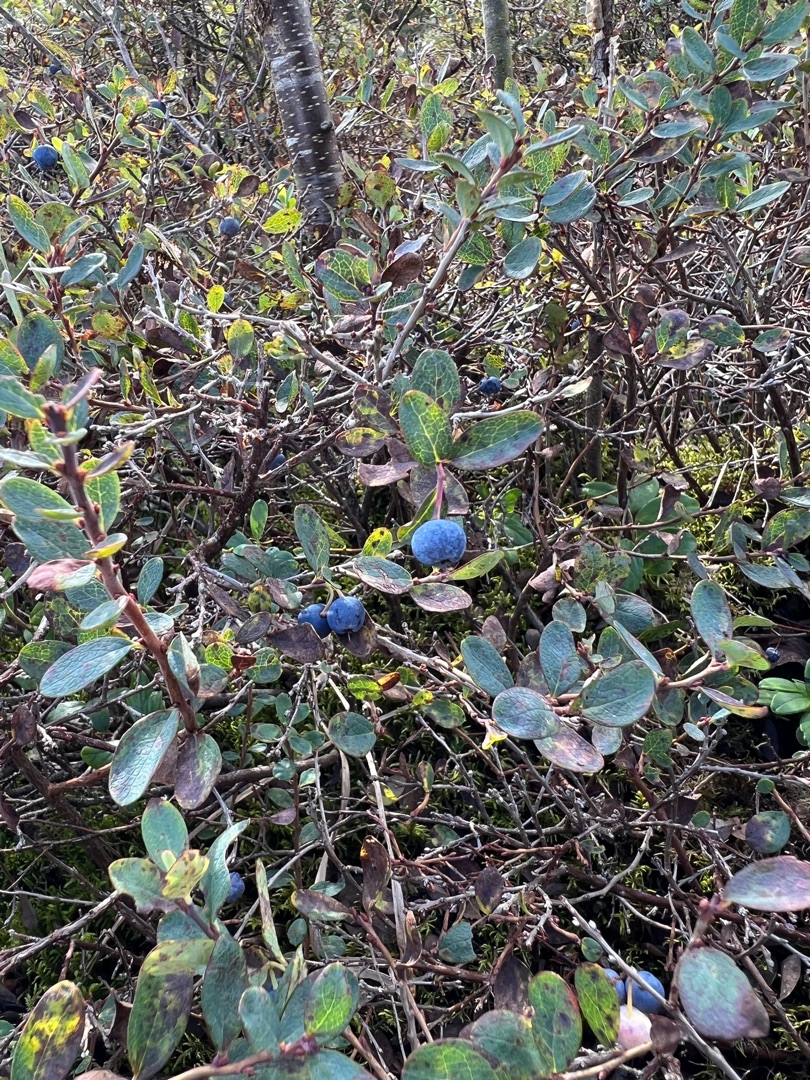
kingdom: Plantae
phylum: Tracheophyta
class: Magnoliopsida
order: Ericales
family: Ericaceae
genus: Vaccinium
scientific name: Vaccinium uliginosum
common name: Mose-bølle
